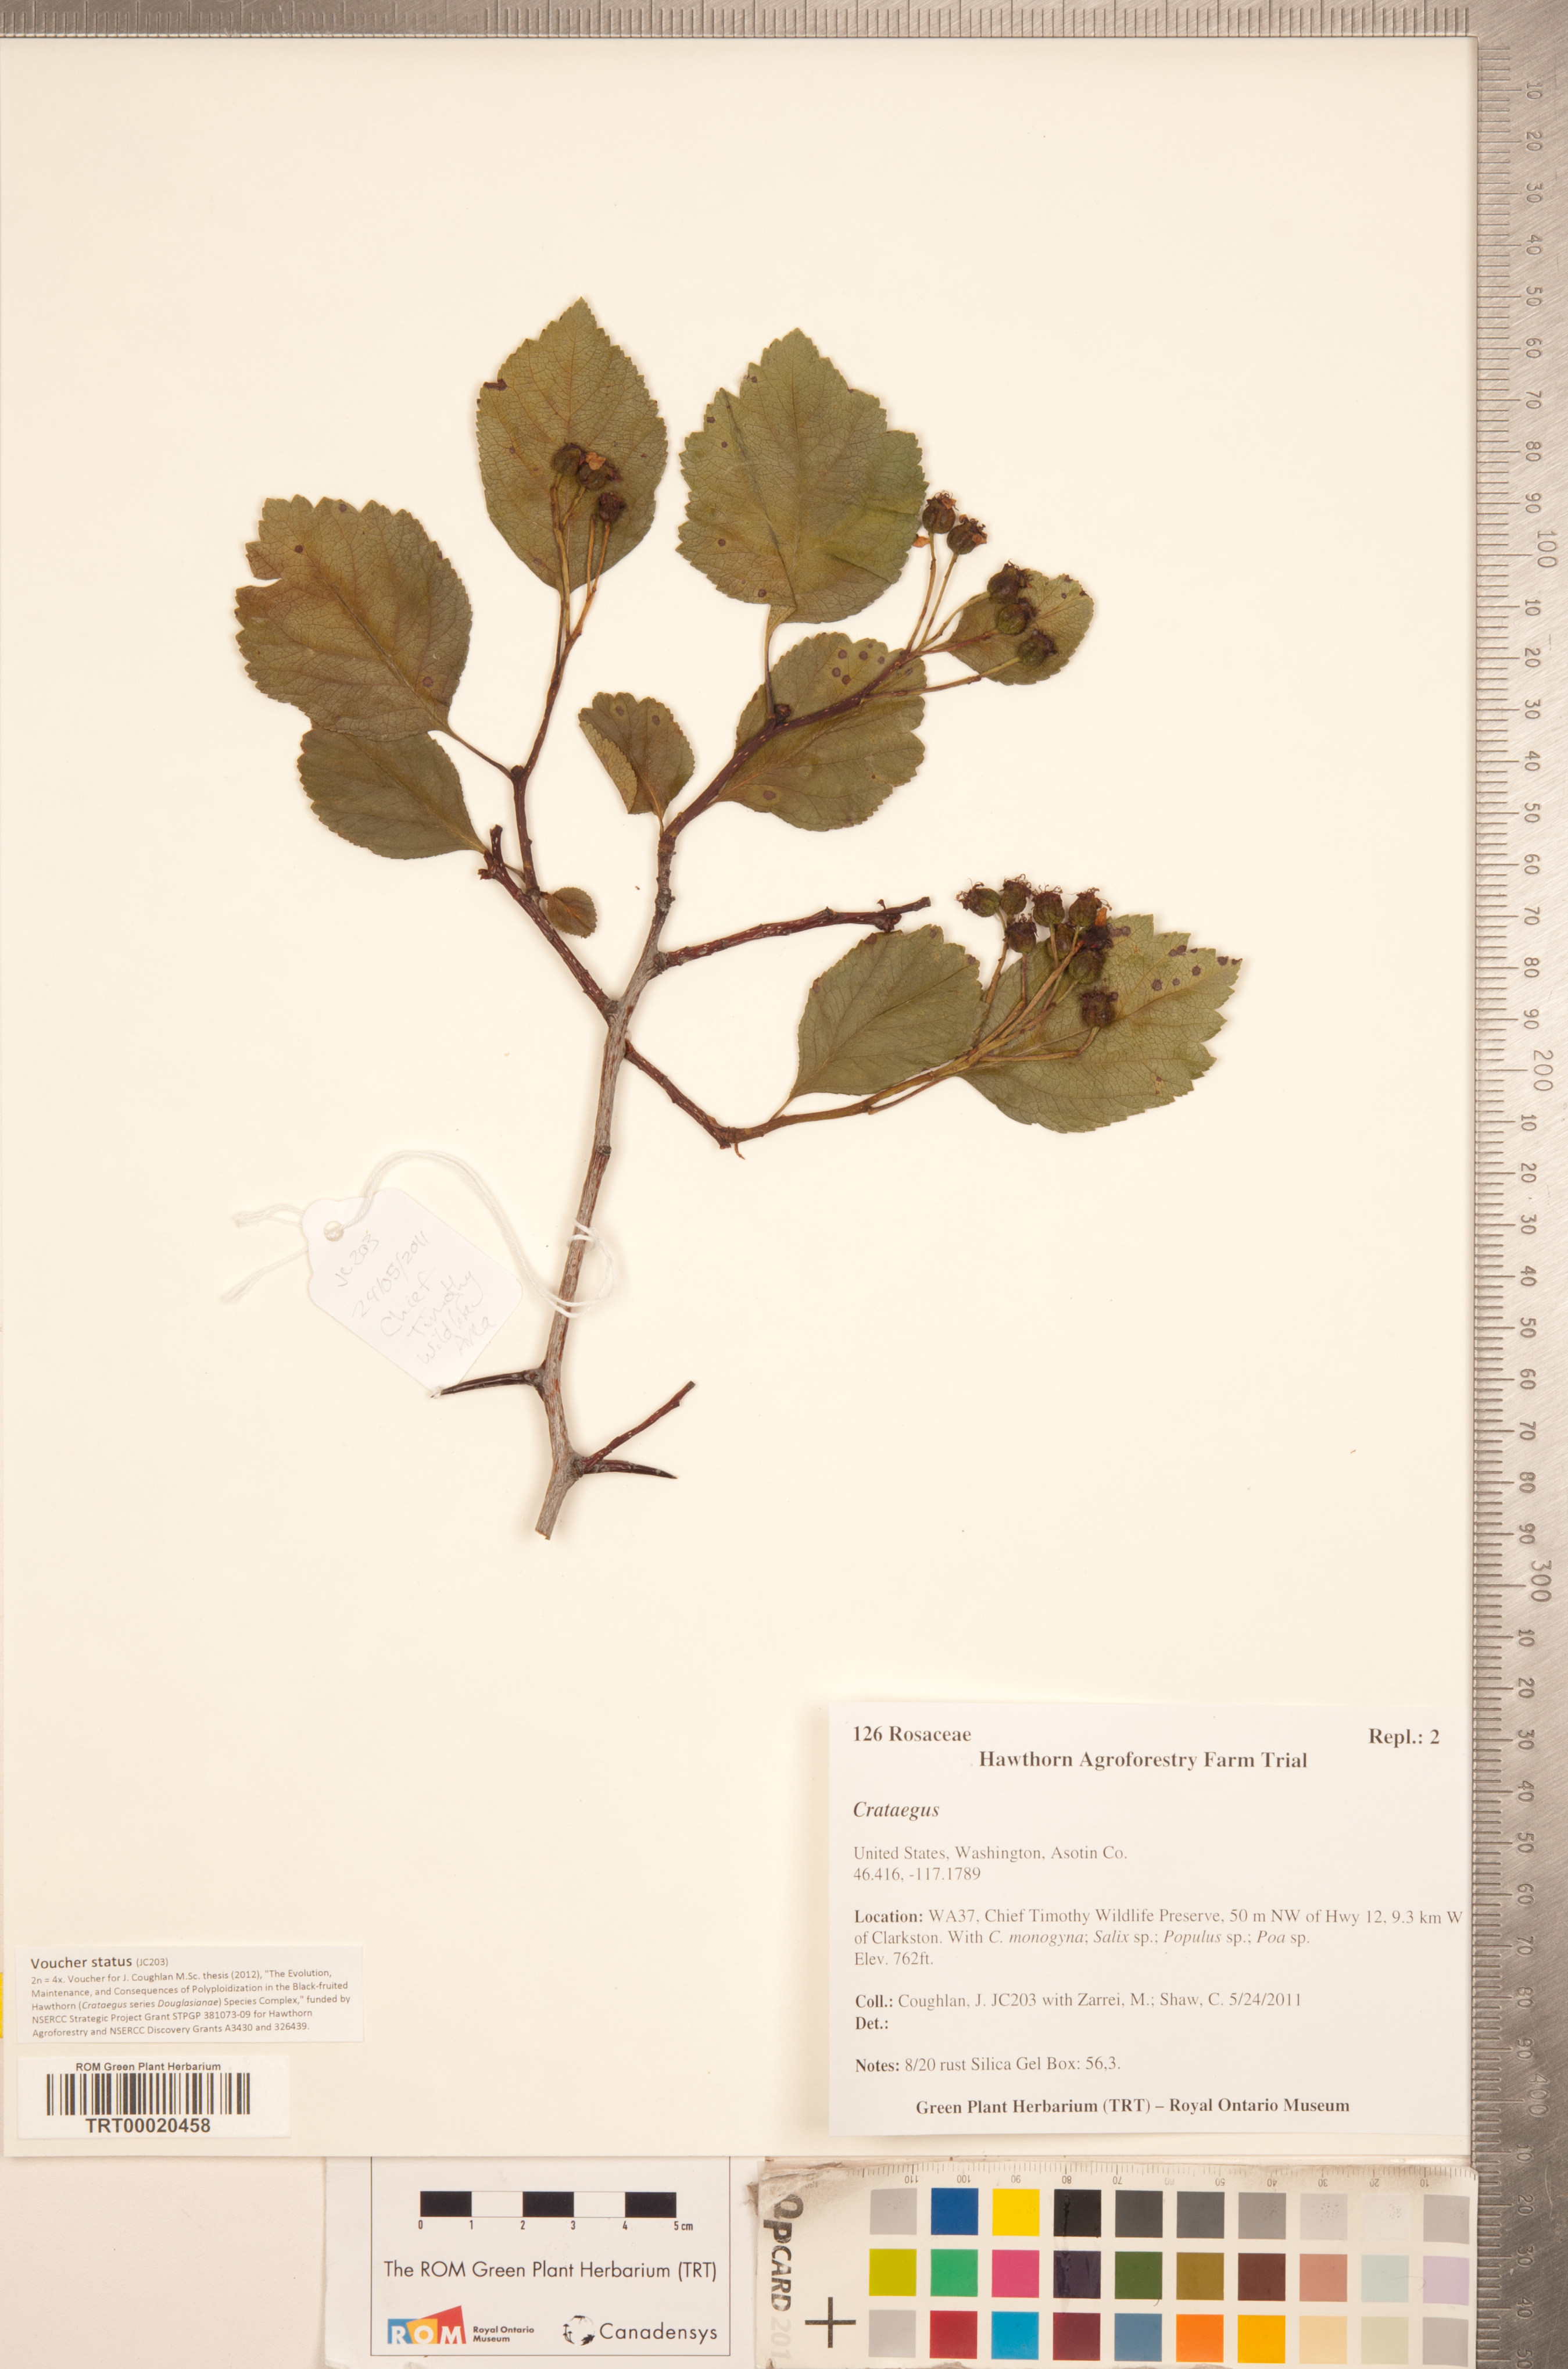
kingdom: Plantae
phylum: Tracheophyta
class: Magnoliopsida
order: Rosales
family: Rosaceae
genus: Crataegus
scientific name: Crataegus
